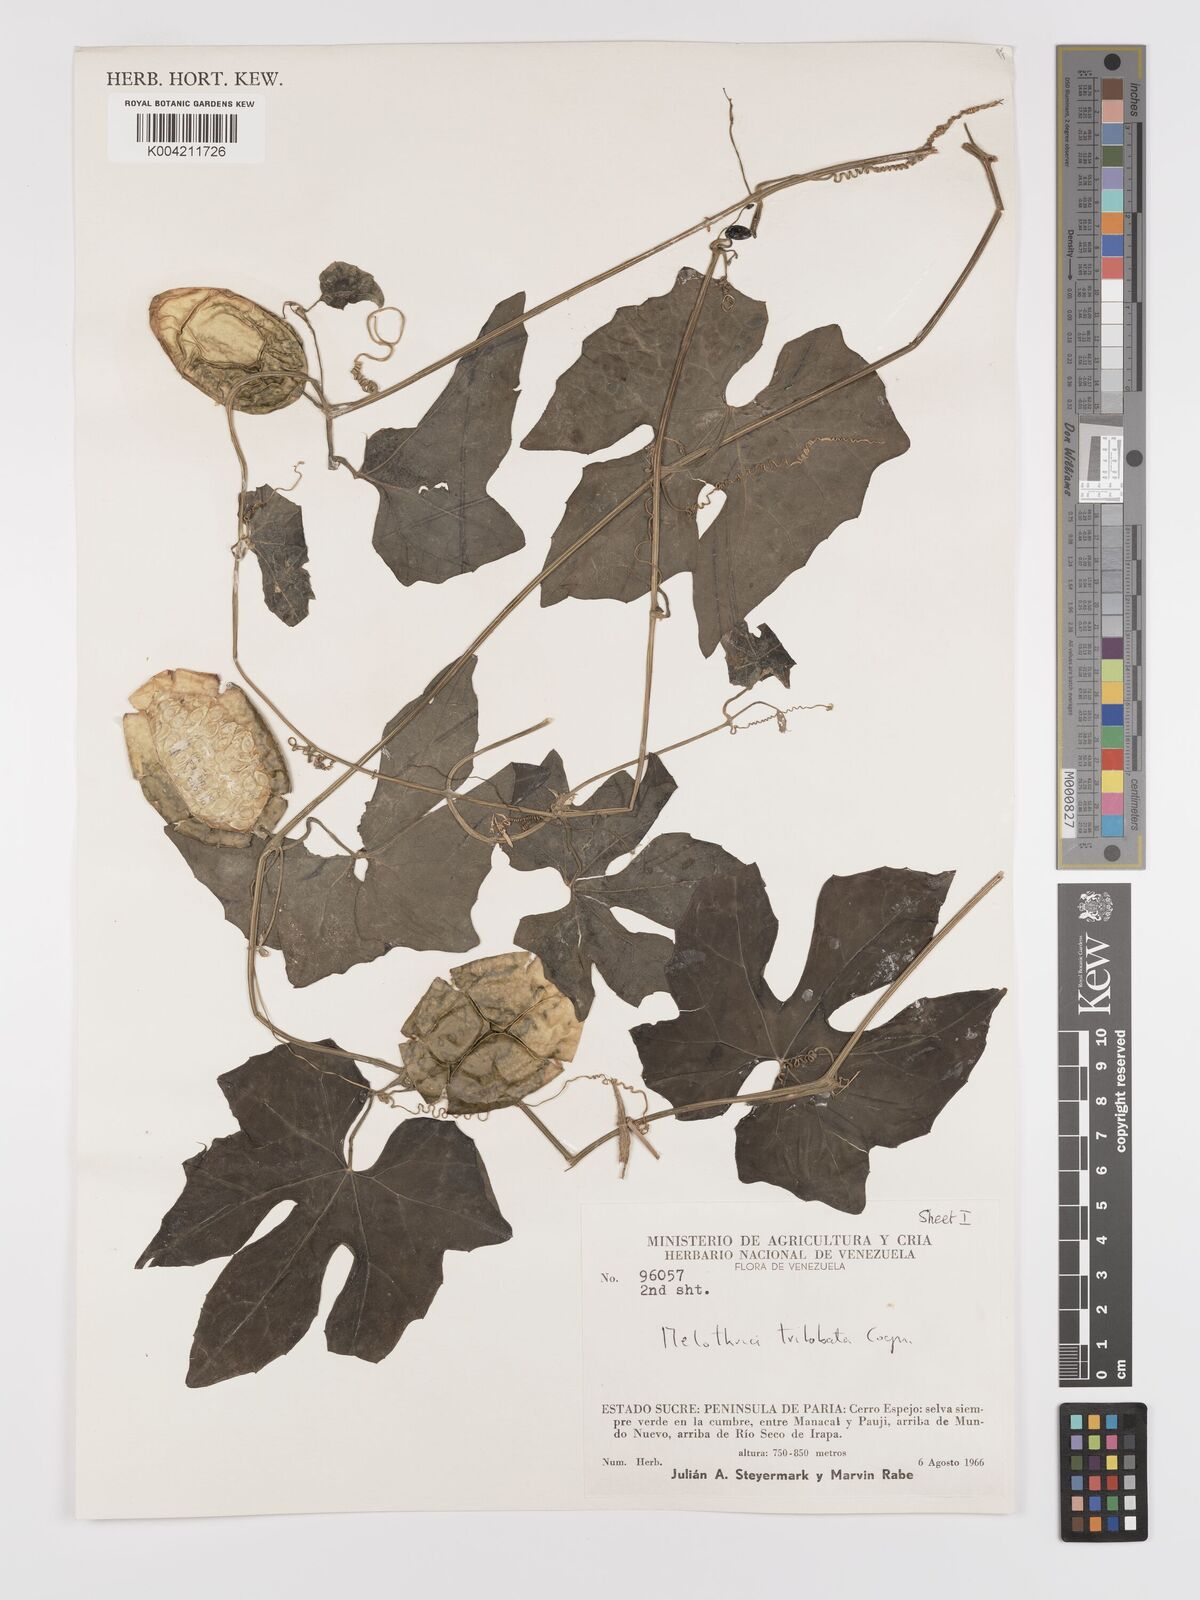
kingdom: Plantae
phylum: Tracheophyta
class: Magnoliopsida
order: Cucurbitales
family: Cucurbitaceae
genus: Melothria
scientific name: Melothria trilobata
